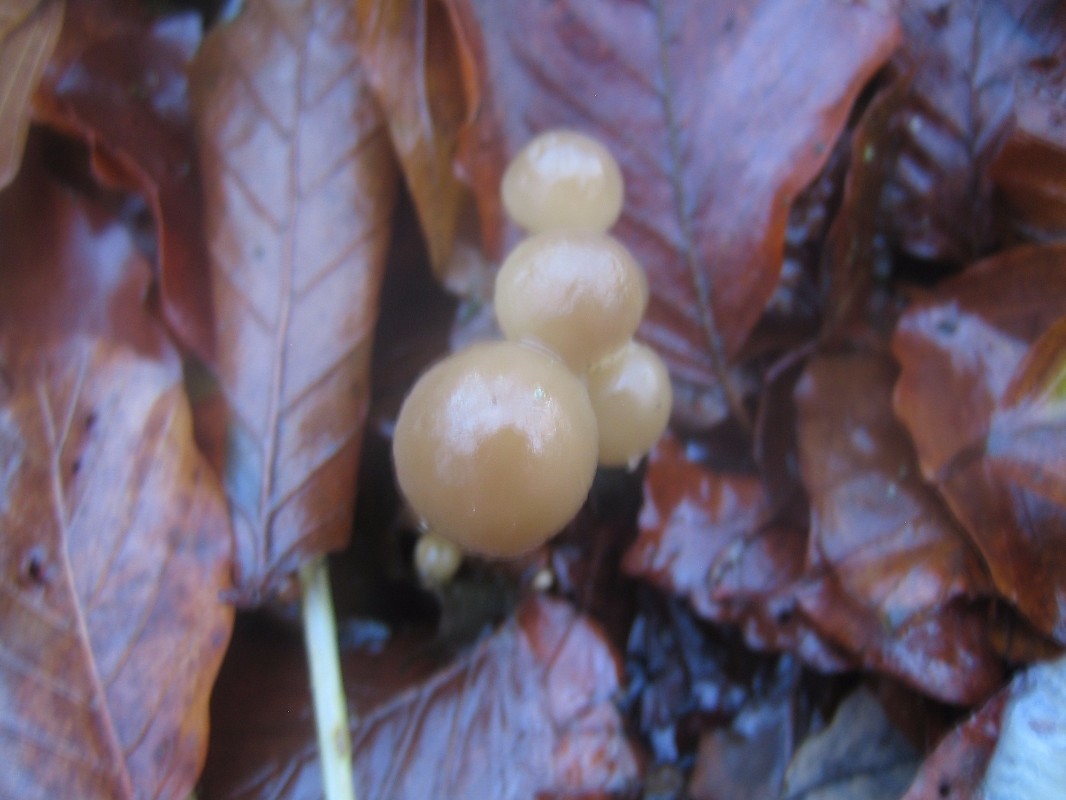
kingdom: Fungi
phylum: Basidiomycota
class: Agaricomycetes
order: Agaricales
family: Physalacriaceae
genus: Mucidula
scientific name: Mucidula mucida
